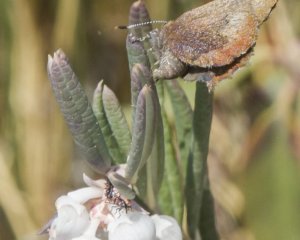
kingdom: Animalia
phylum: Arthropoda
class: Insecta
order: Lepidoptera
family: Lycaenidae
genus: Incisalia
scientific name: Incisalia irioides
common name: Brown Elfin
